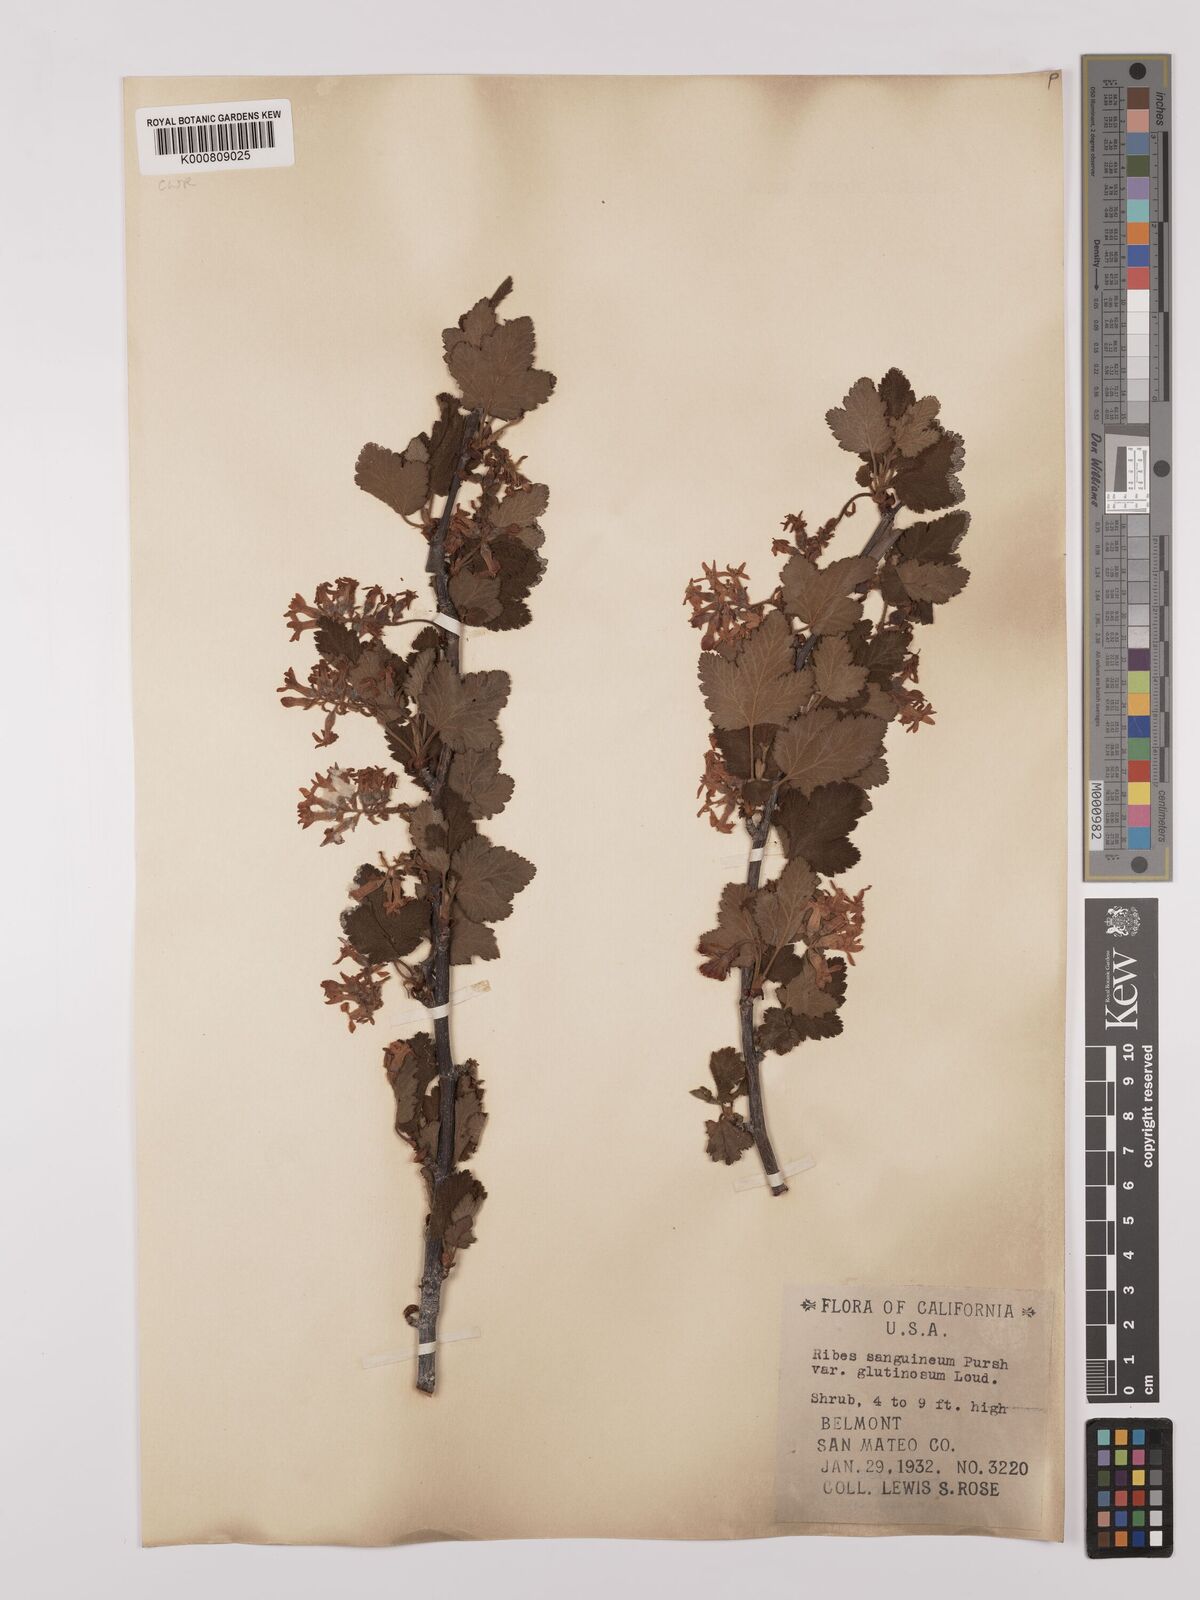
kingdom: Plantae
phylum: Tracheophyta
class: Magnoliopsida
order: Saxifragales
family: Grossulariaceae
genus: Ribes
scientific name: Ribes sanguineum
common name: Flowering currant
